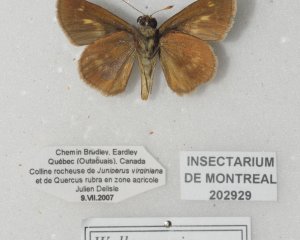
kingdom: Animalia
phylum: Arthropoda
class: Insecta
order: Lepidoptera
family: Hesperiidae
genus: Polites
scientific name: Polites egeremet
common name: Northern Broken-Dash
